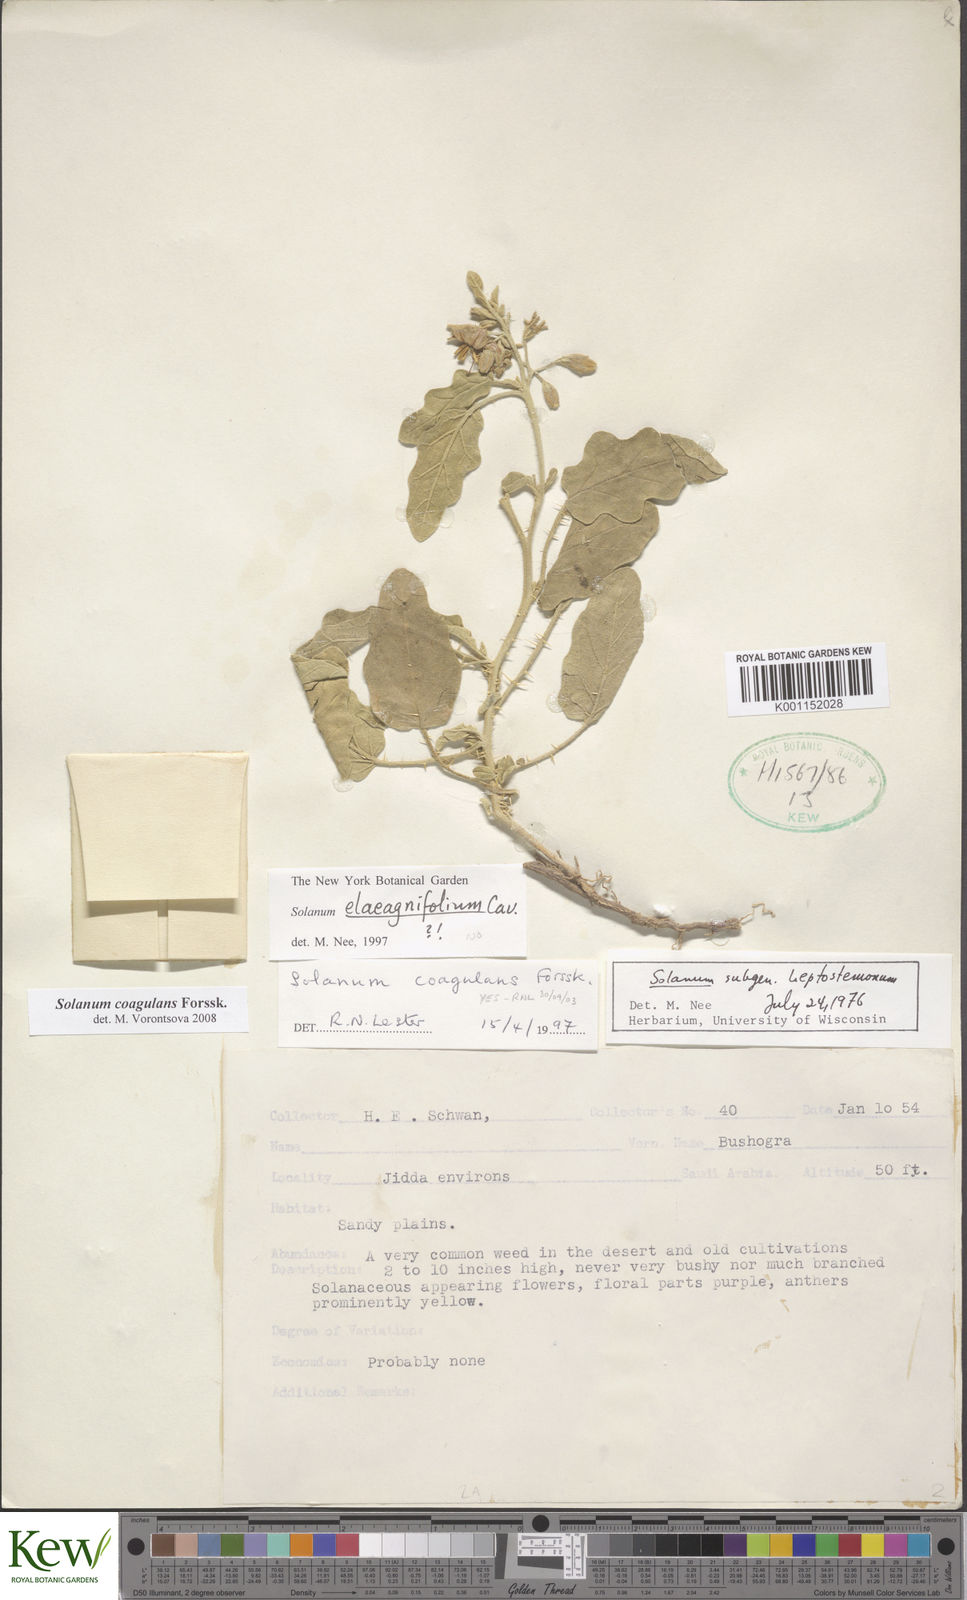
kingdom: Plantae
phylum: Tracheophyta
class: Magnoliopsida
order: Solanales
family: Solanaceae
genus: Solanum
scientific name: Solanum coagulans
